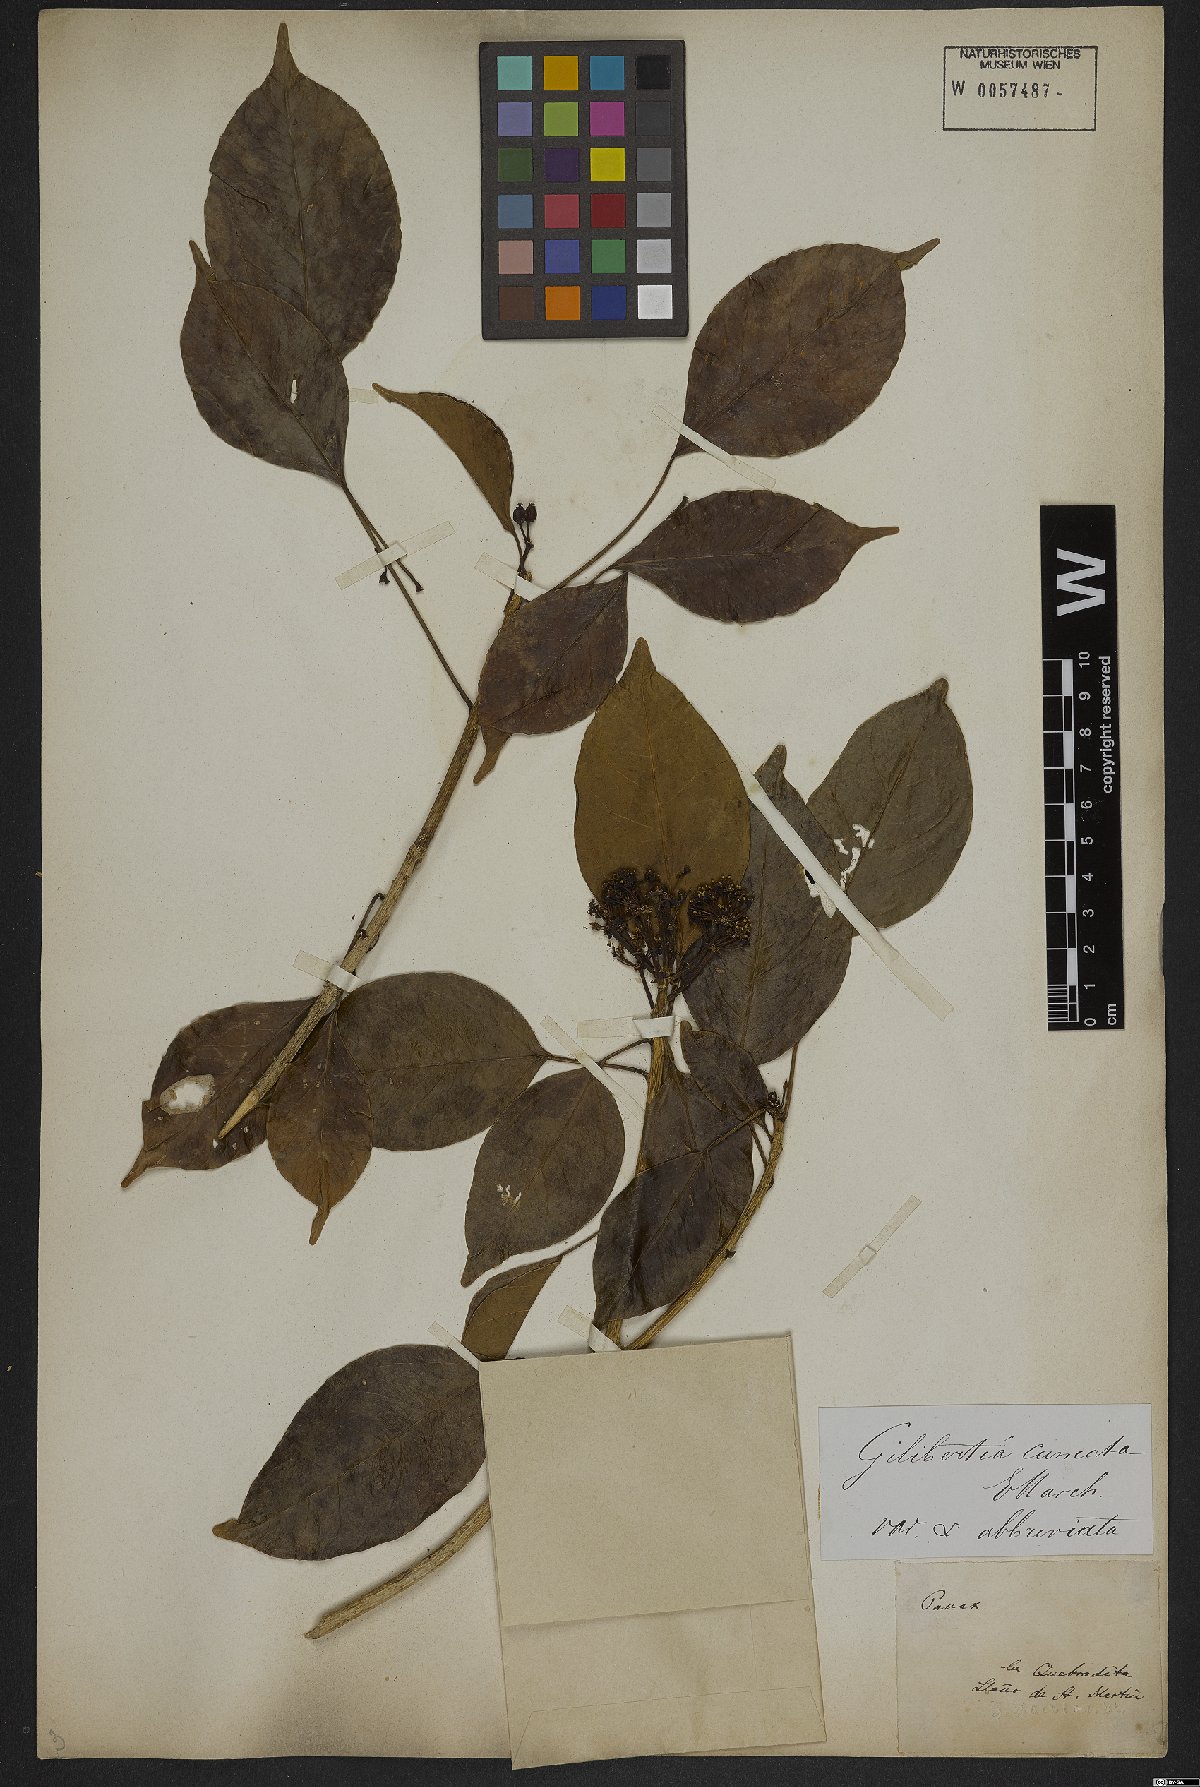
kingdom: Plantae
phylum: Tracheophyta
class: Magnoliopsida
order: Apiales
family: Araliaceae
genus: Dendropanax
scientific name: Dendropanax cuneatus
